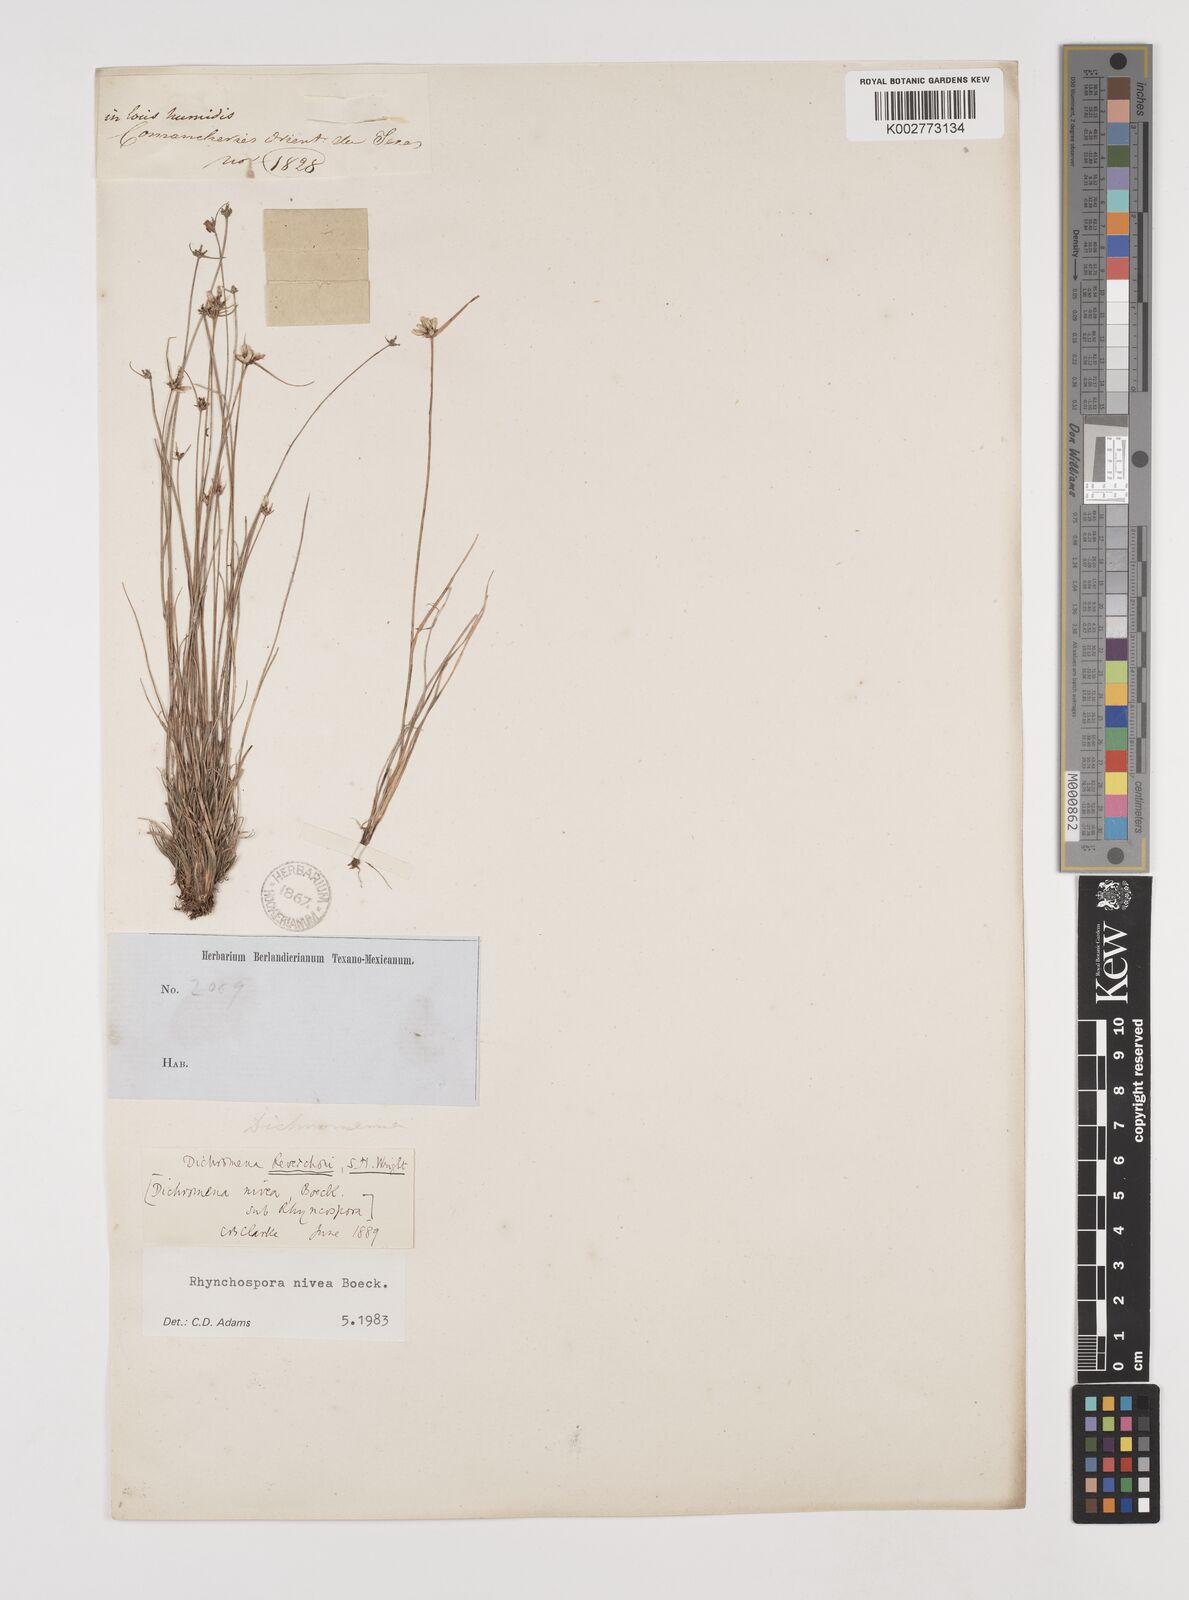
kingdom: Plantae
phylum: Tracheophyta
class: Liliopsida
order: Poales
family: Cyperaceae
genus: Rhynchospora
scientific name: Rhynchospora nivea
